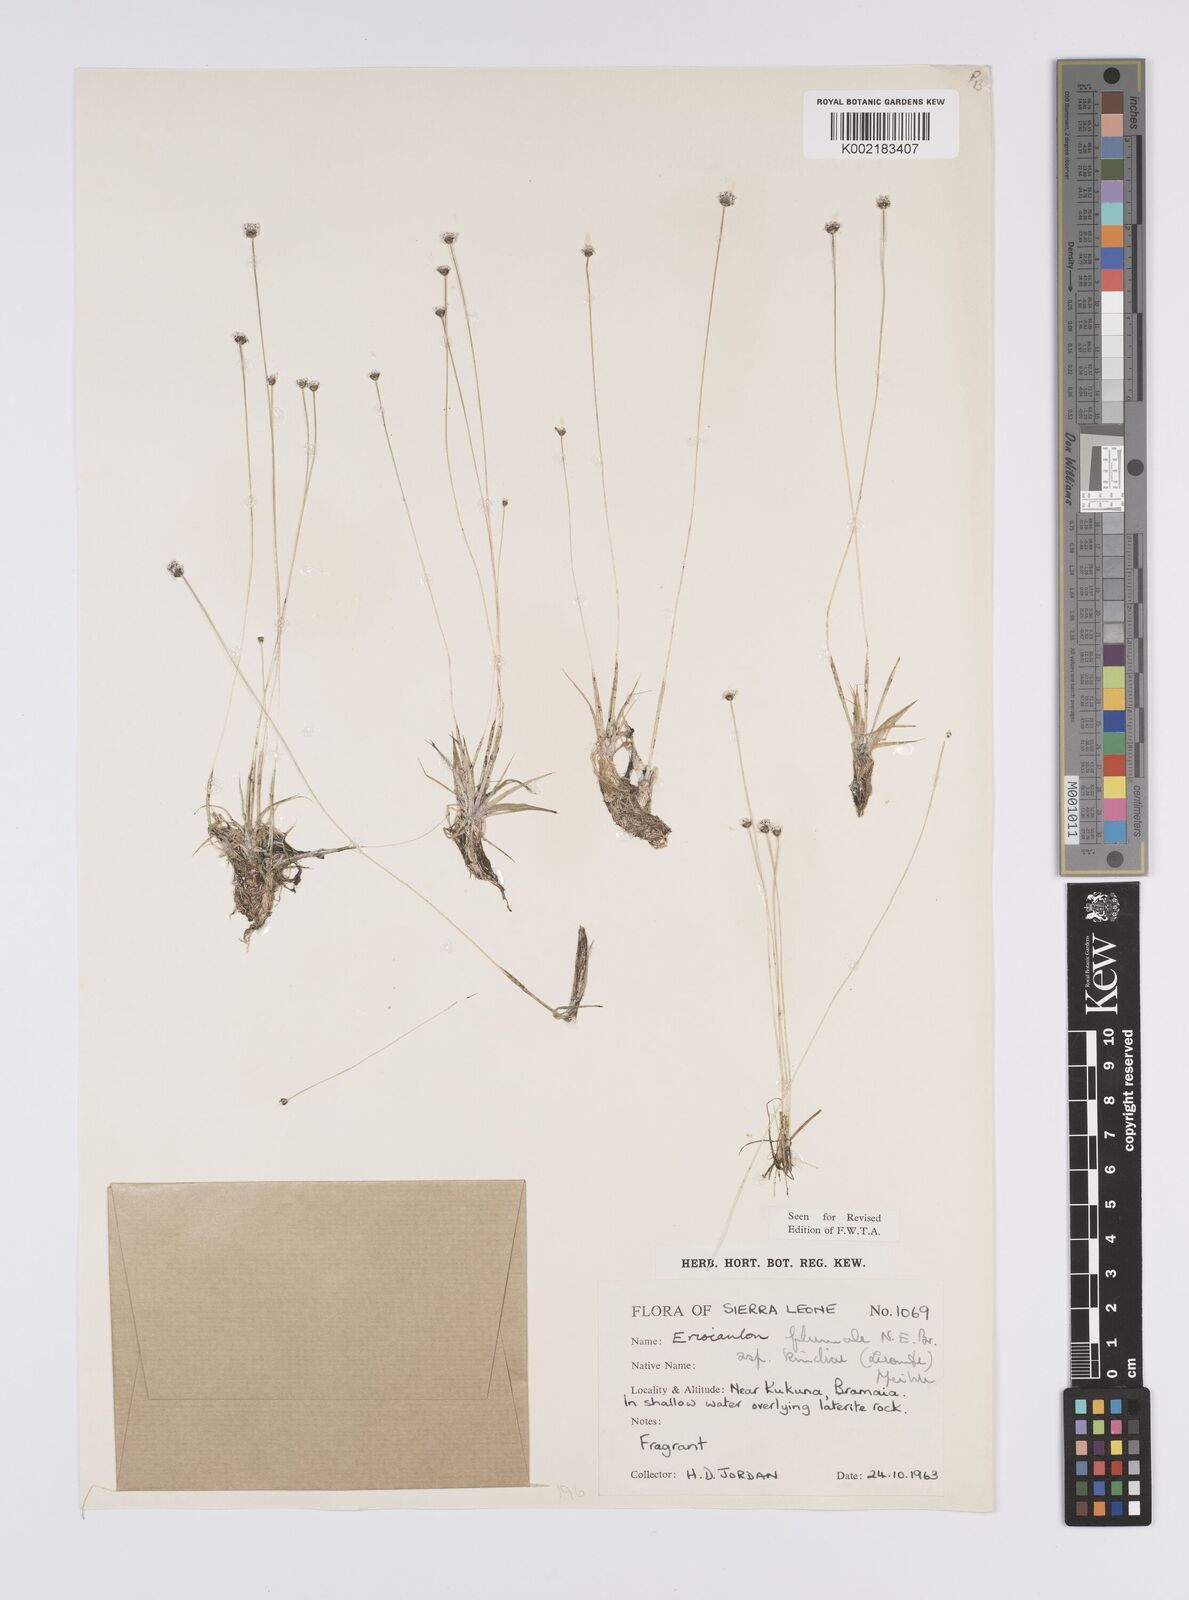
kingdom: Plantae
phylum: Tracheophyta
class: Liliopsida
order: Poales
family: Eriocaulaceae
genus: Eriocaulon
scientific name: Eriocaulon plumale
